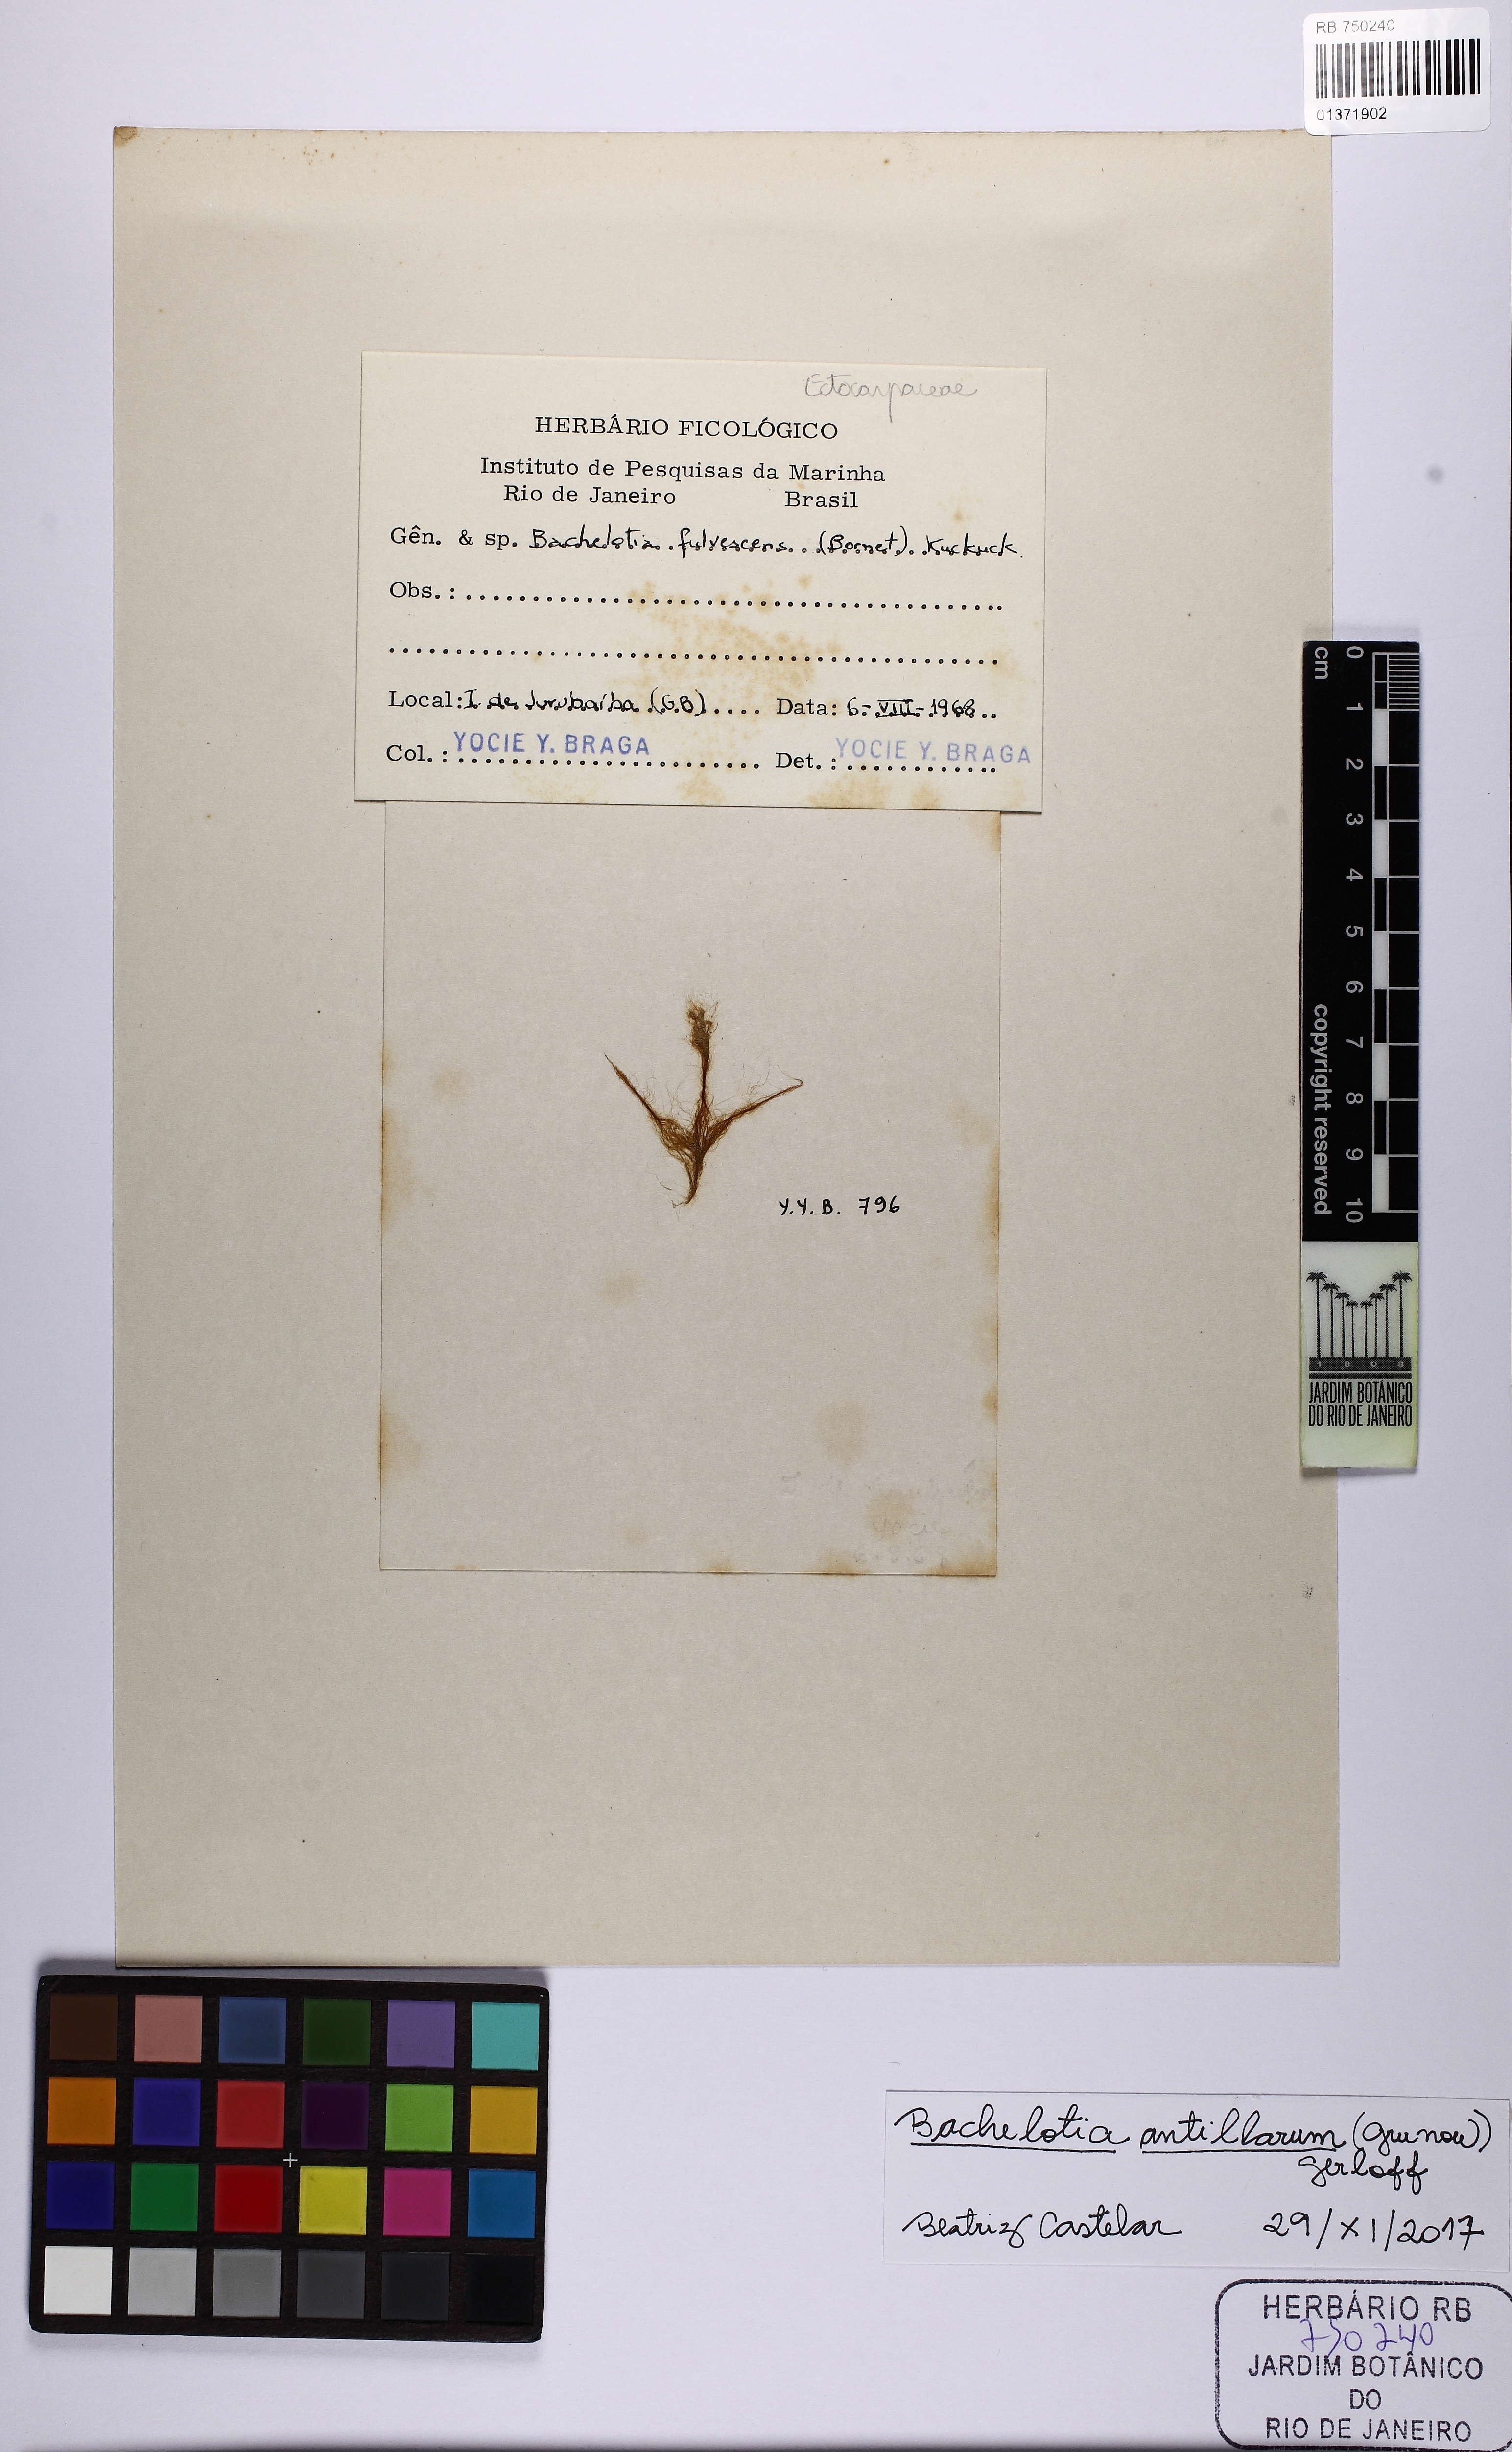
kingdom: Chromista
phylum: Ochrophyta
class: Phaeophyceae
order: Scytothamnales
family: Bachelotiaceae
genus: Bachelotia
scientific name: Bachelotia antillarum
